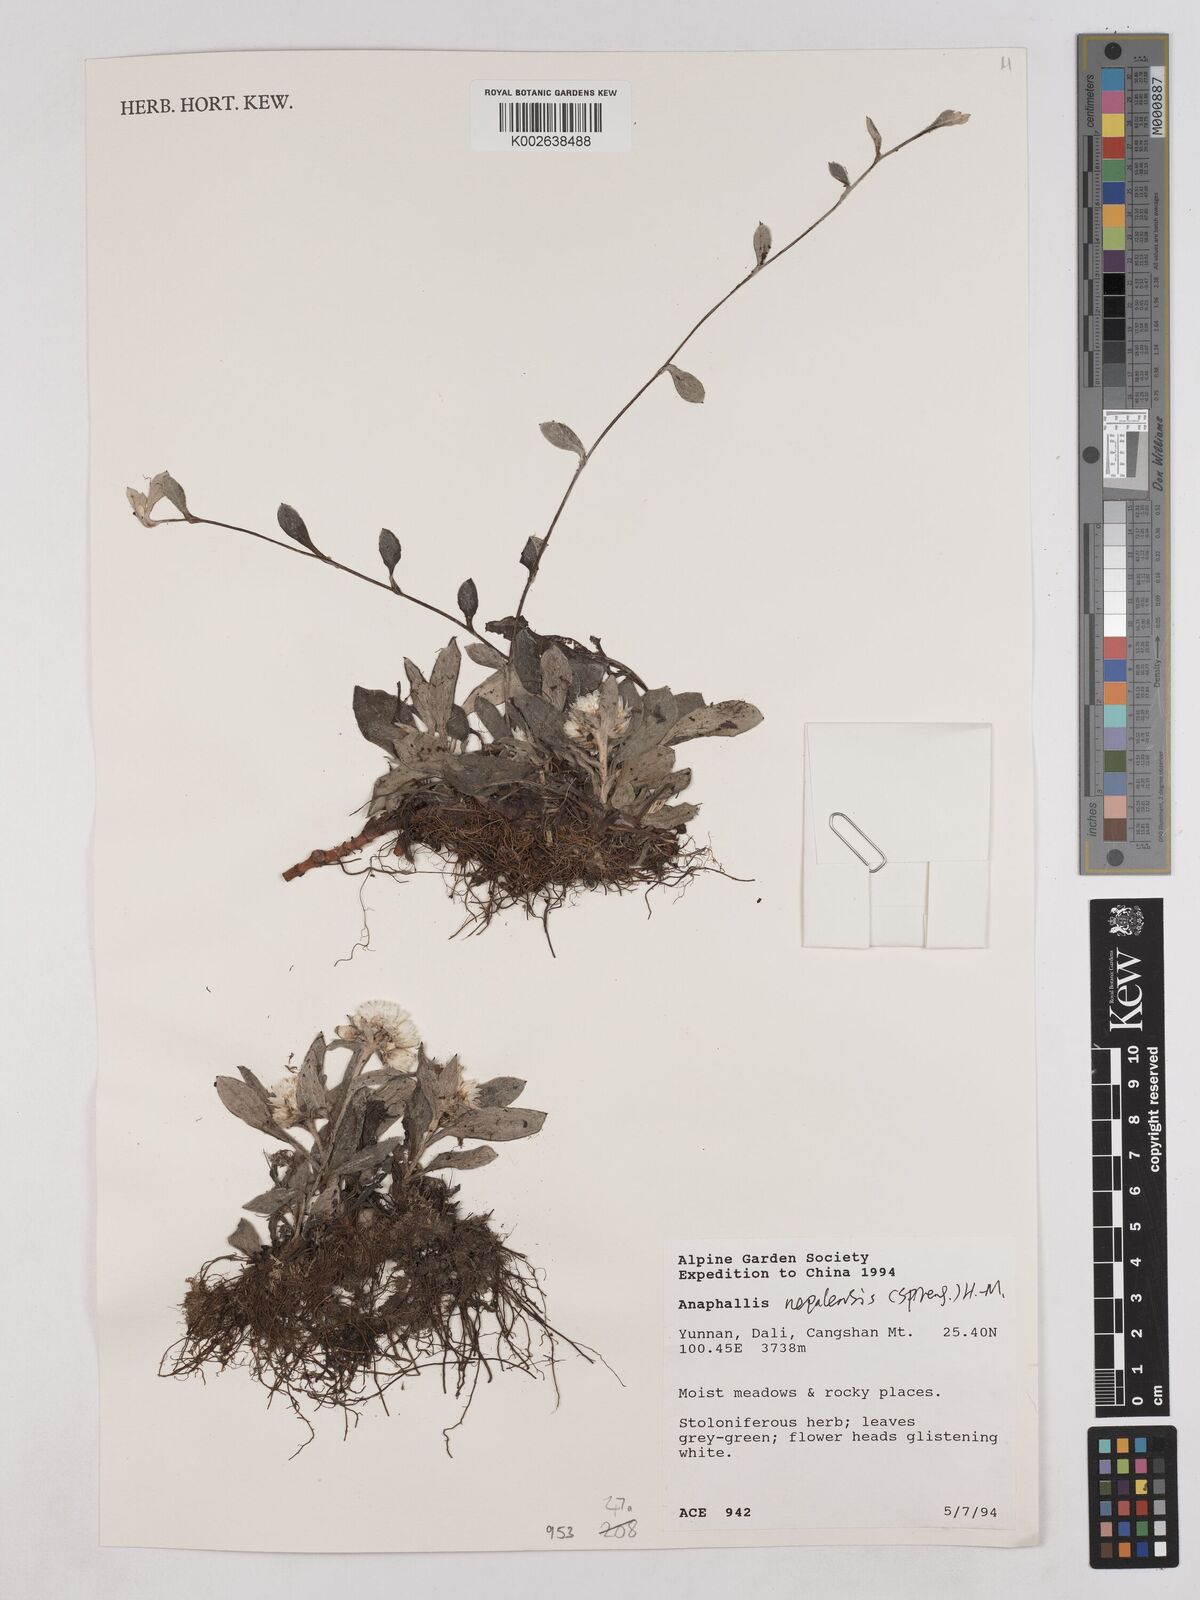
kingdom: Plantae
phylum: Tracheophyta
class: Magnoliopsida
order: Asterales
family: Asteraceae
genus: Anaphalis
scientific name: Anaphalis nepalensis
